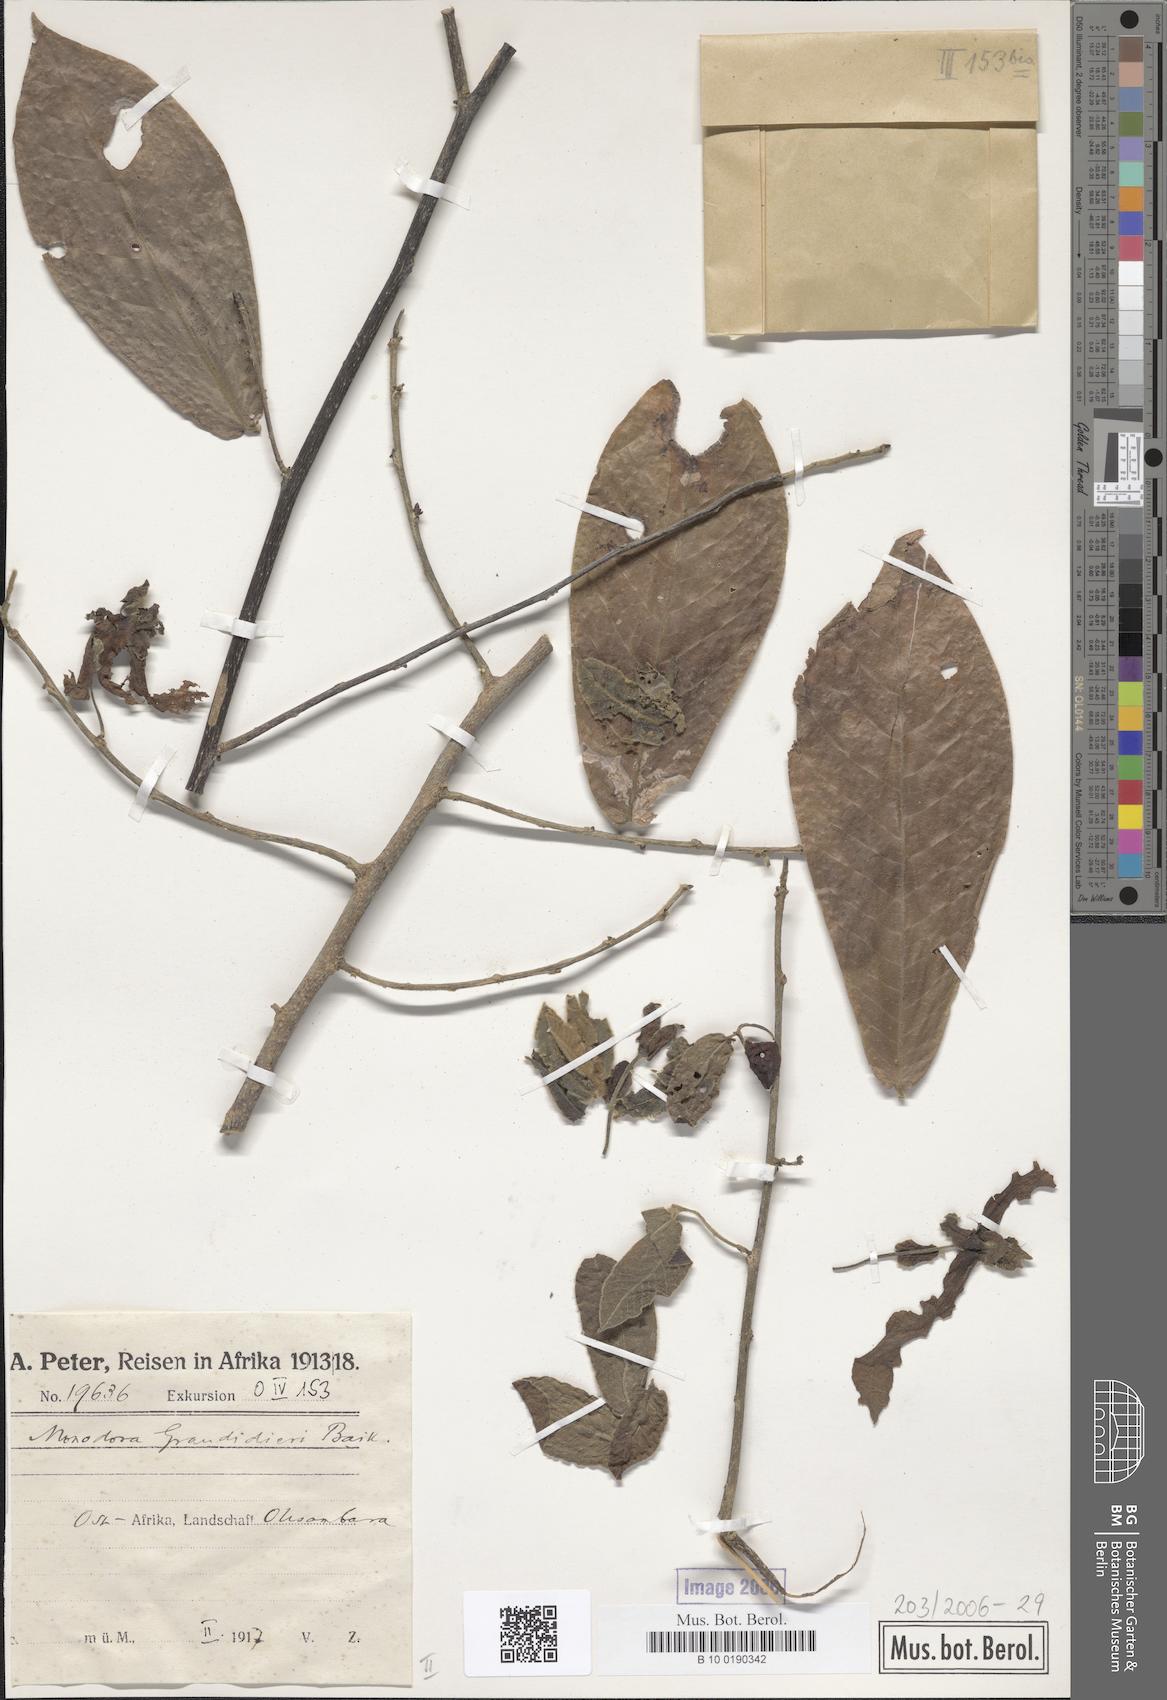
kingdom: Plantae
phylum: Tracheophyta
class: Magnoliopsida
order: Magnoliales
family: Annonaceae
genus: Monodora
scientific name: Monodora grandidieri
